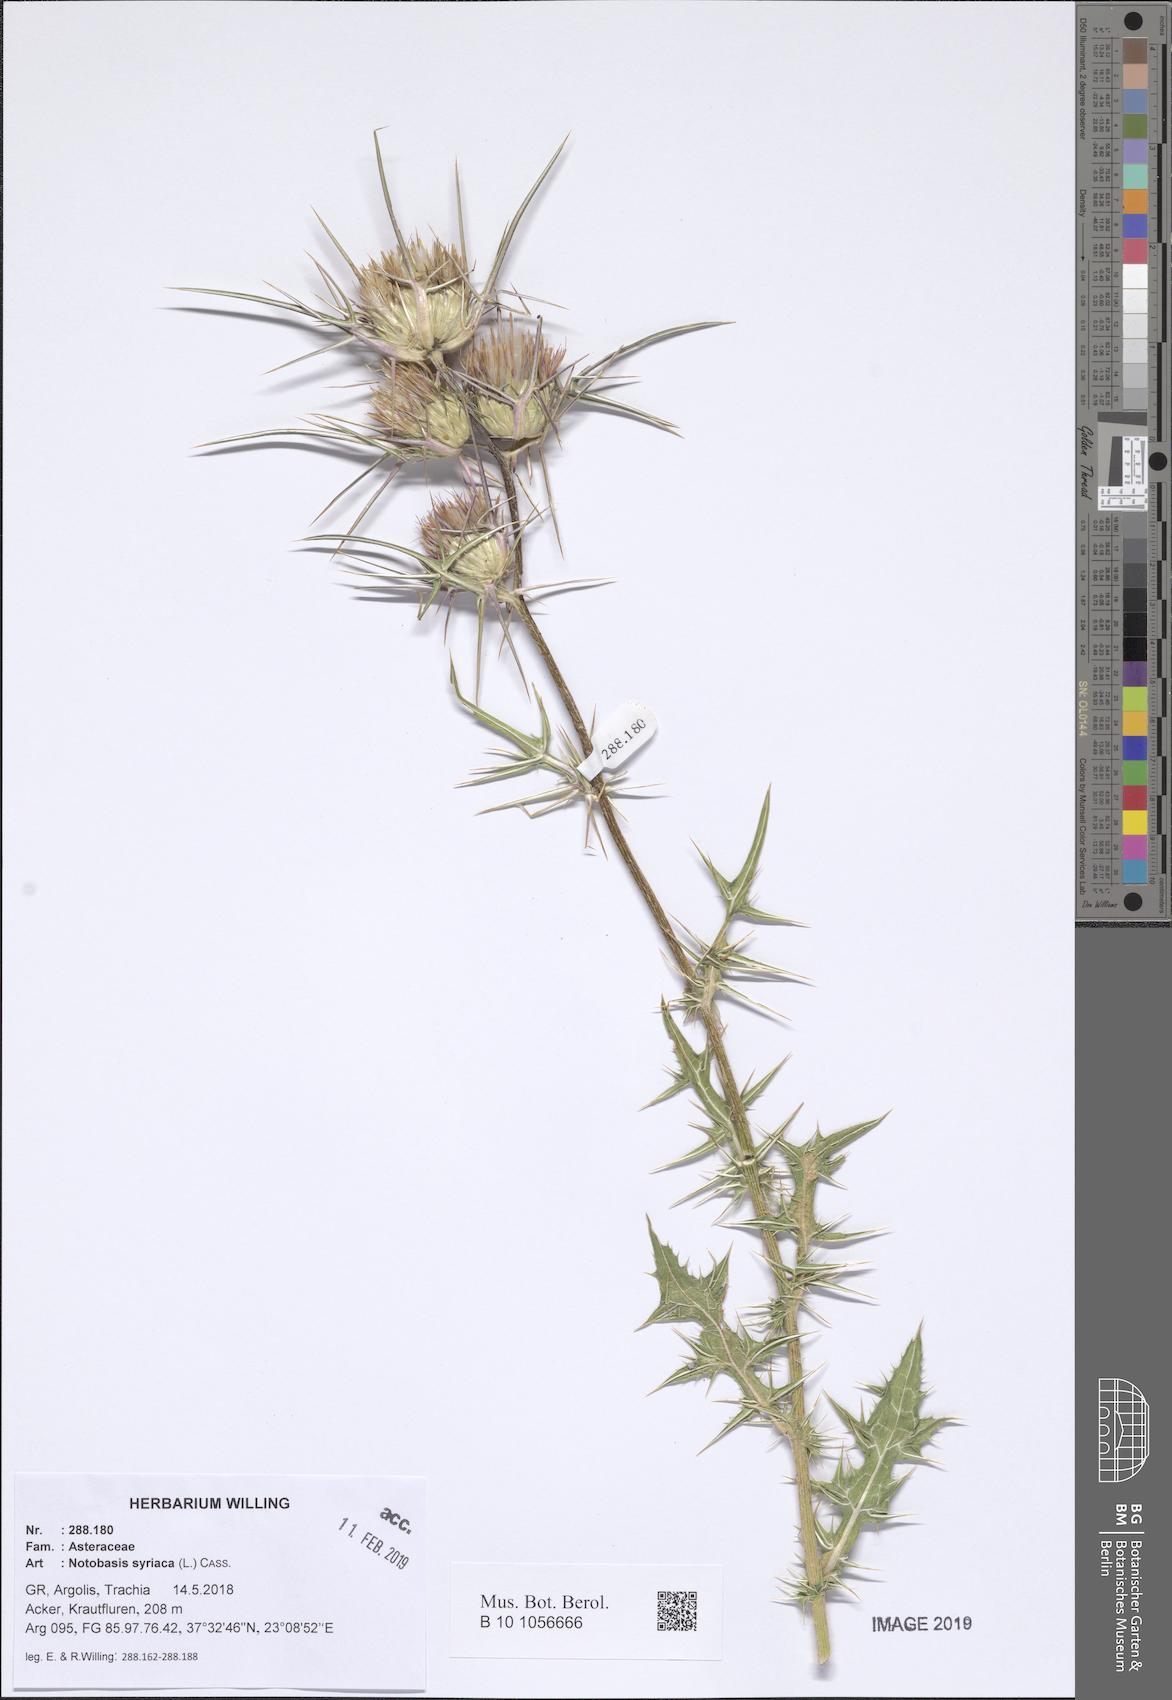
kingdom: Plantae
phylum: Tracheophyta
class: Magnoliopsida
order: Asterales
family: Asteraceae
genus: Notobasis
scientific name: Notobasis syriaca
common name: Syrian thistle
